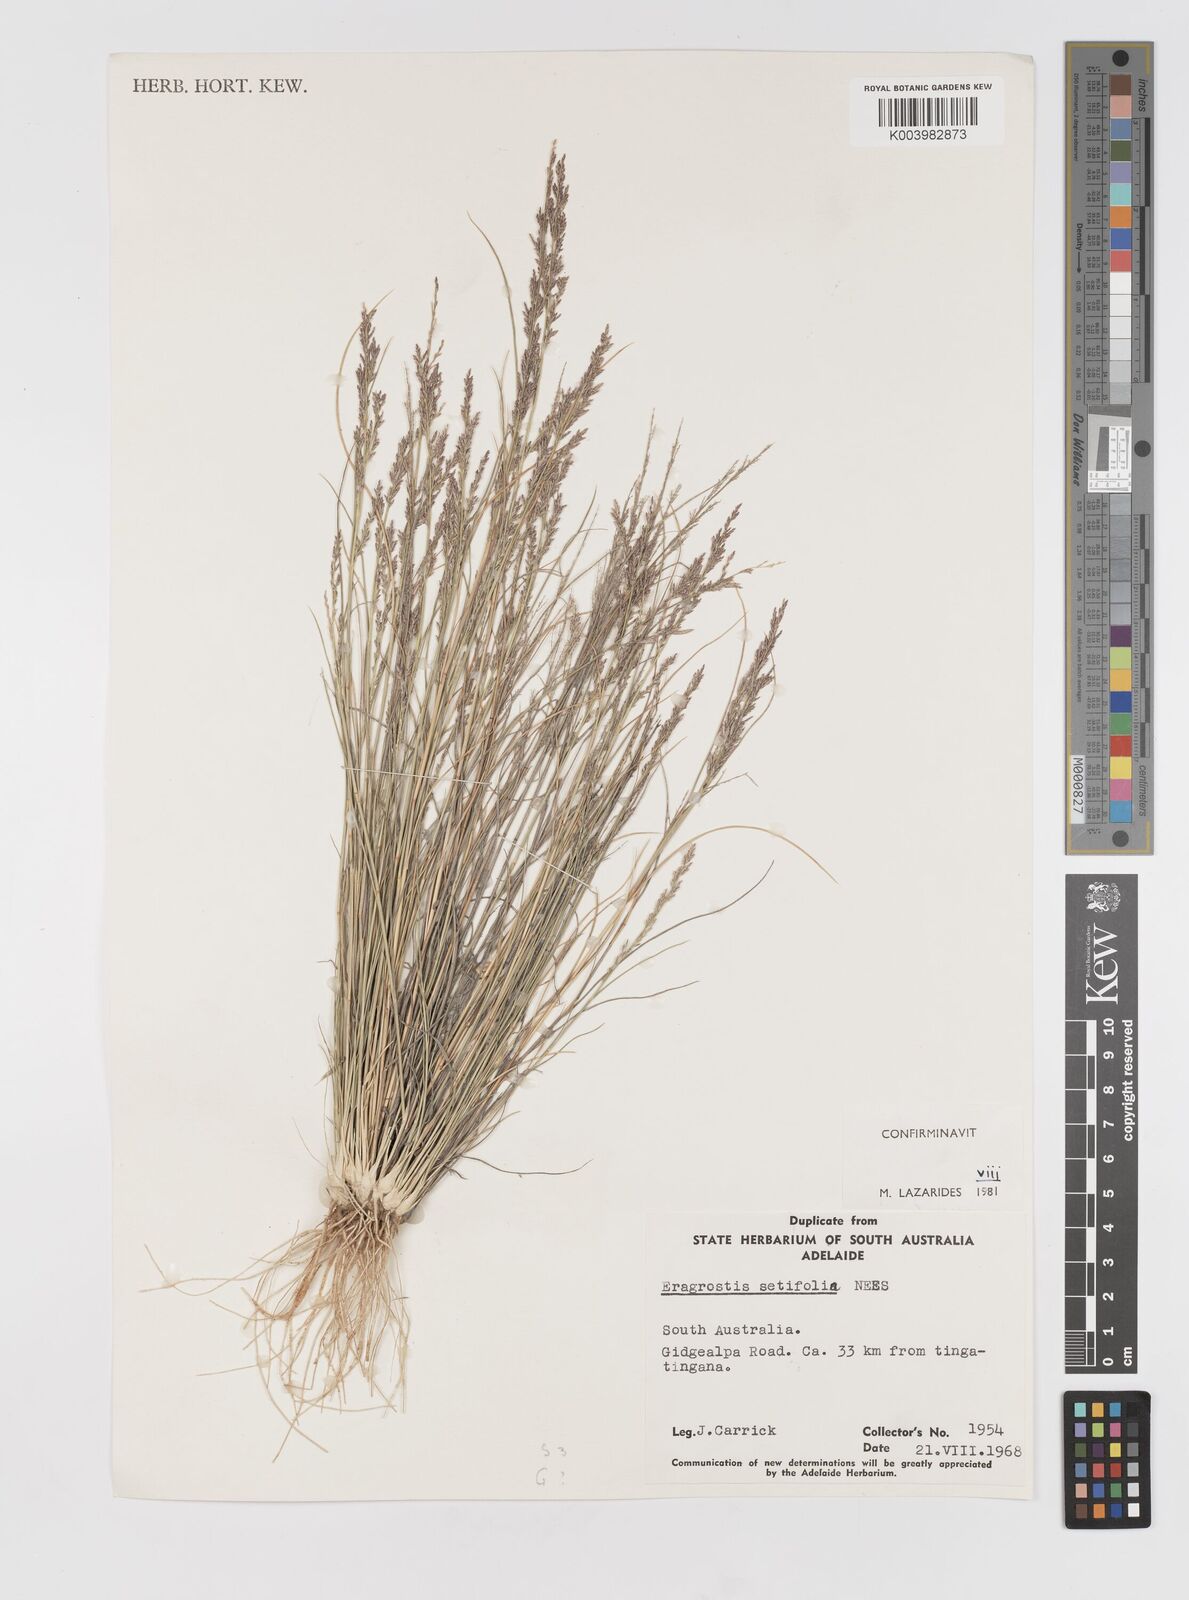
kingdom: Plantae
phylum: Tracheophyta
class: Liliopsida
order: Poales
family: Poaceae
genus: Eragrostis
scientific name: Eragrostis setifolia
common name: Bristleleaf lovegrass
